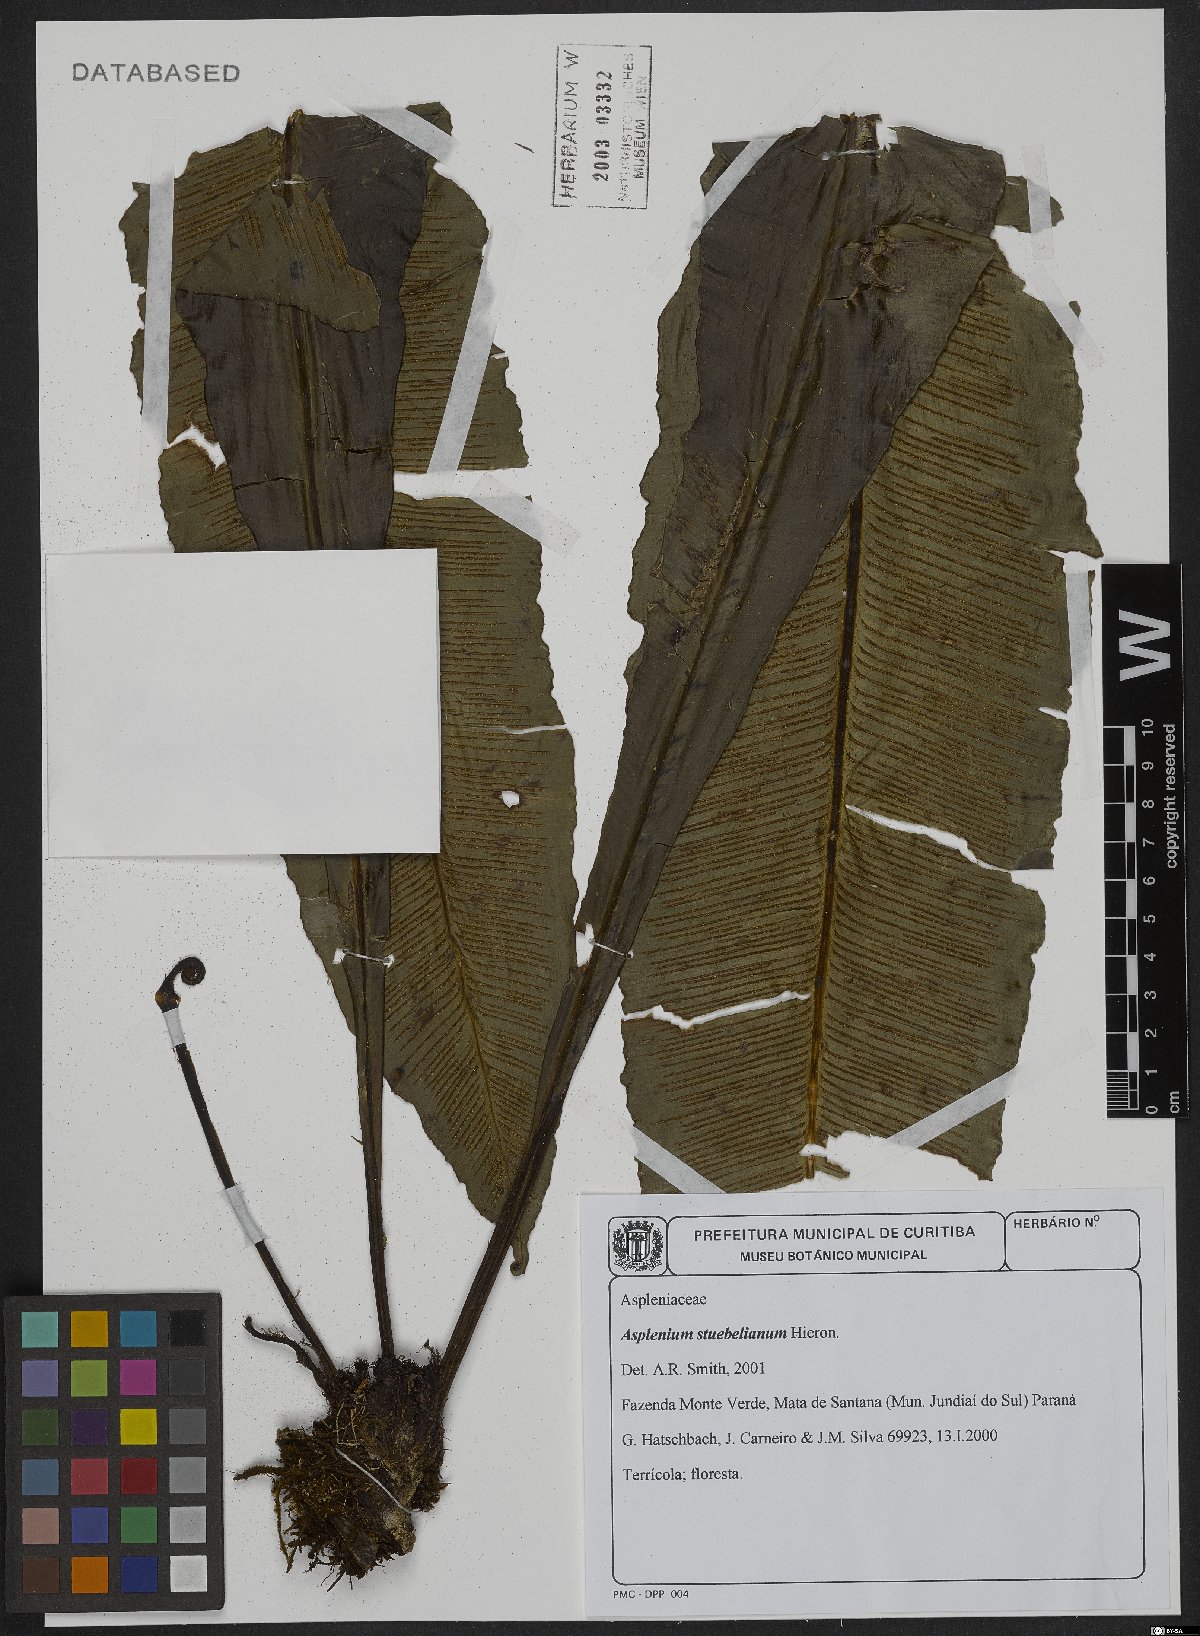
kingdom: Plantae
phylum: Tracheophyta
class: Polypodiopsida
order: Polypodiales
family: Aspleniaceae
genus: Asplenium
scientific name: Asplenium stubelianum
